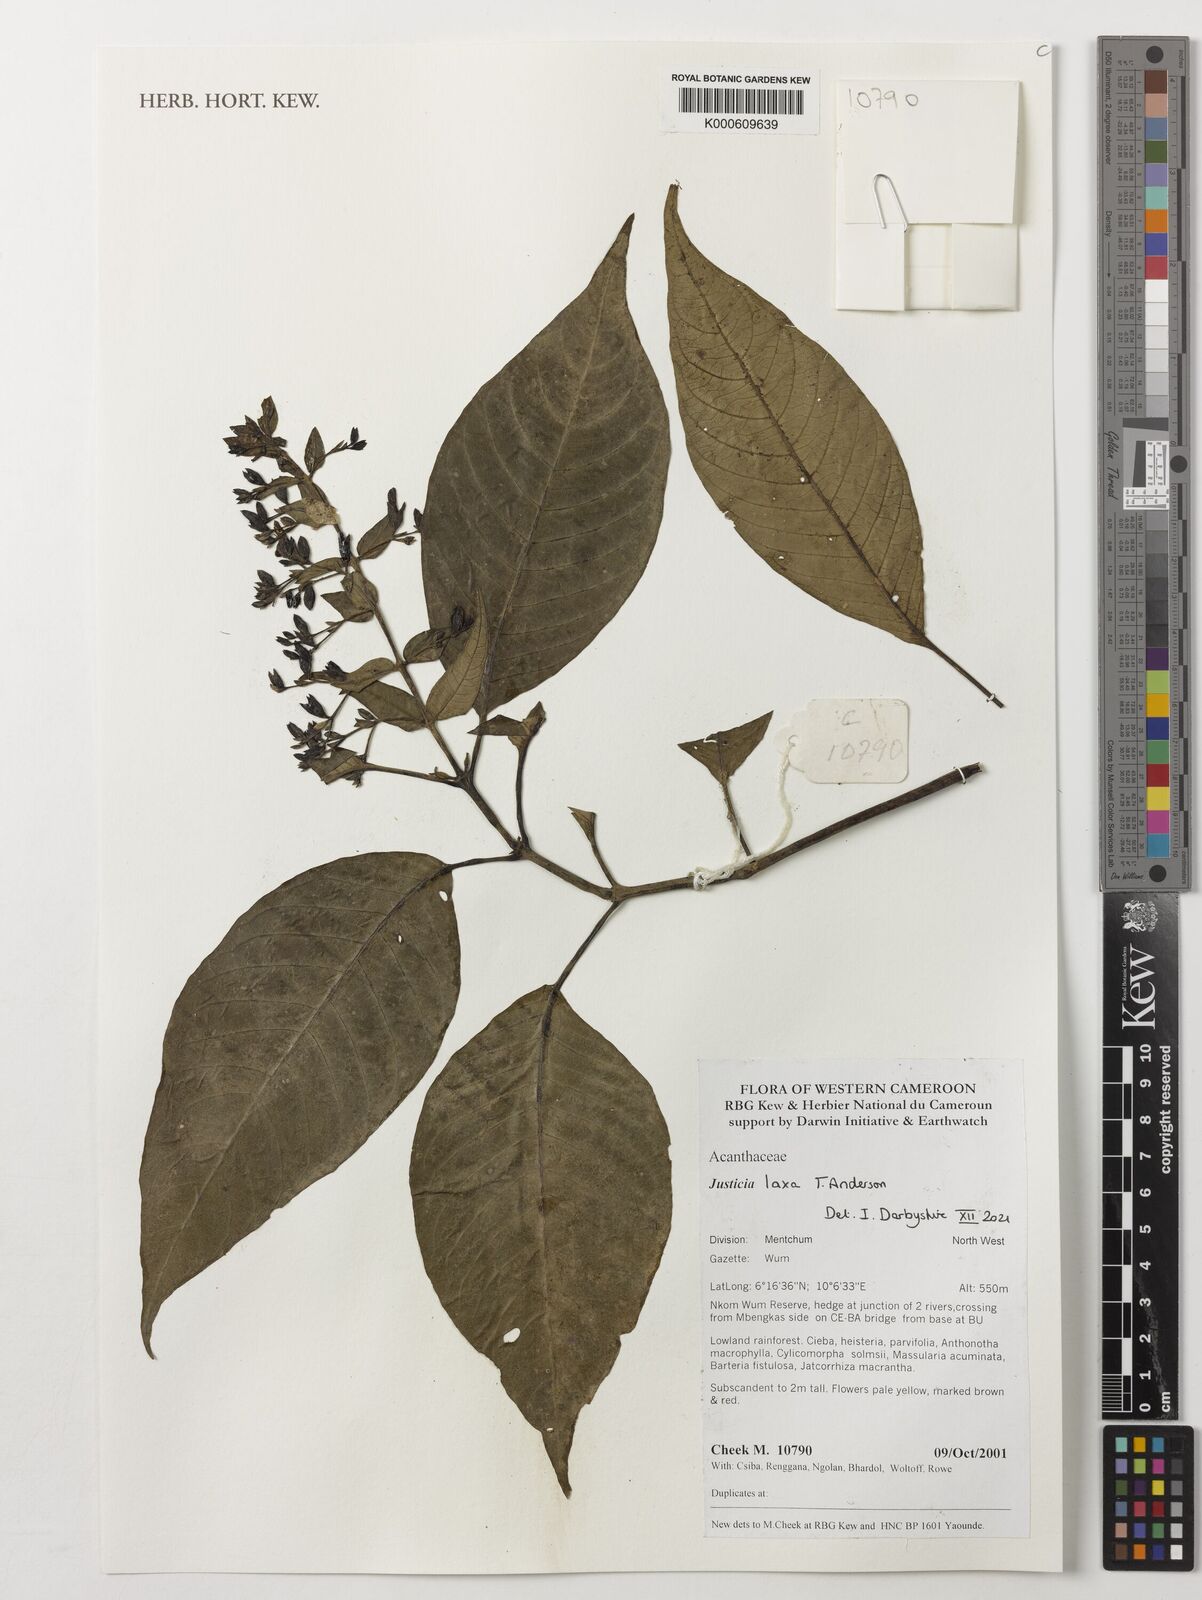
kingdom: Plantae
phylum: Tracheophyta
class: Magnoliopsida
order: Lamiales
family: Acanthaceae
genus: Justicia
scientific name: Justicia laxa
